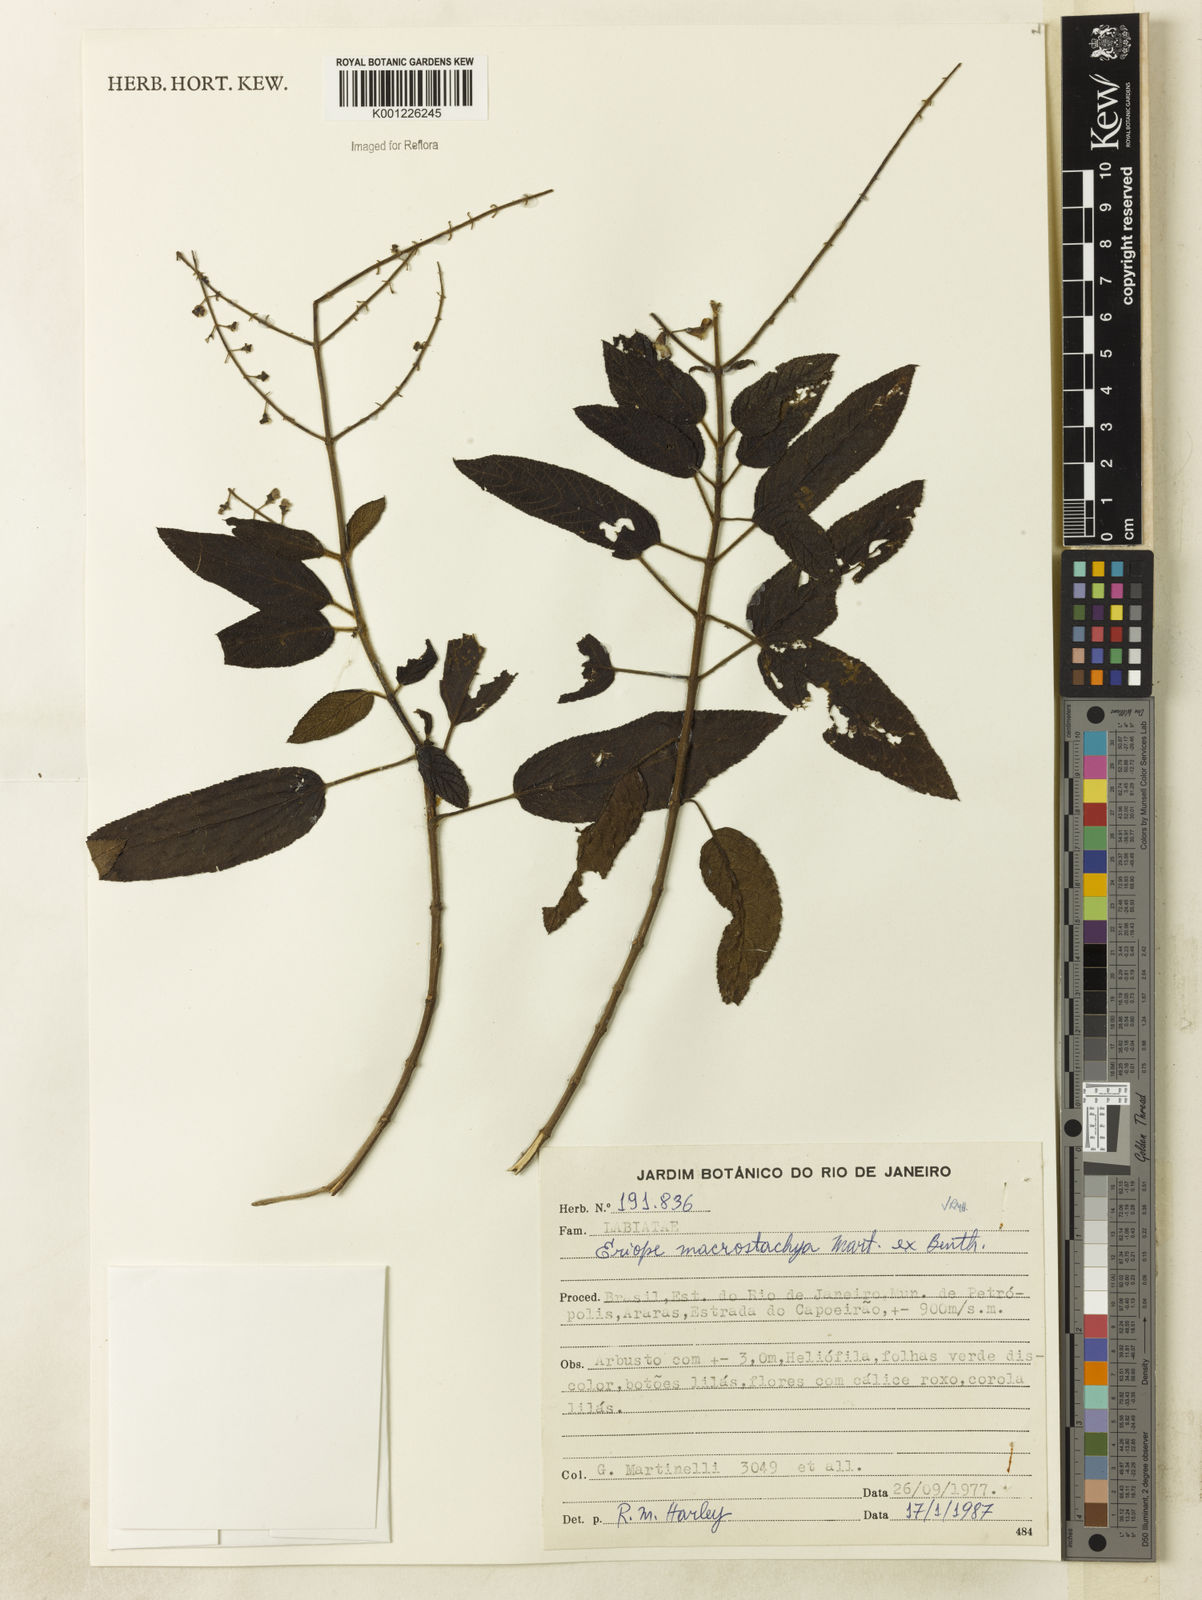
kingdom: Plantae
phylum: Tracheophyta
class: Magnoliopsida
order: Lamiales
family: Lamiaceae
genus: Eriope
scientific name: Eriope macrostachya
